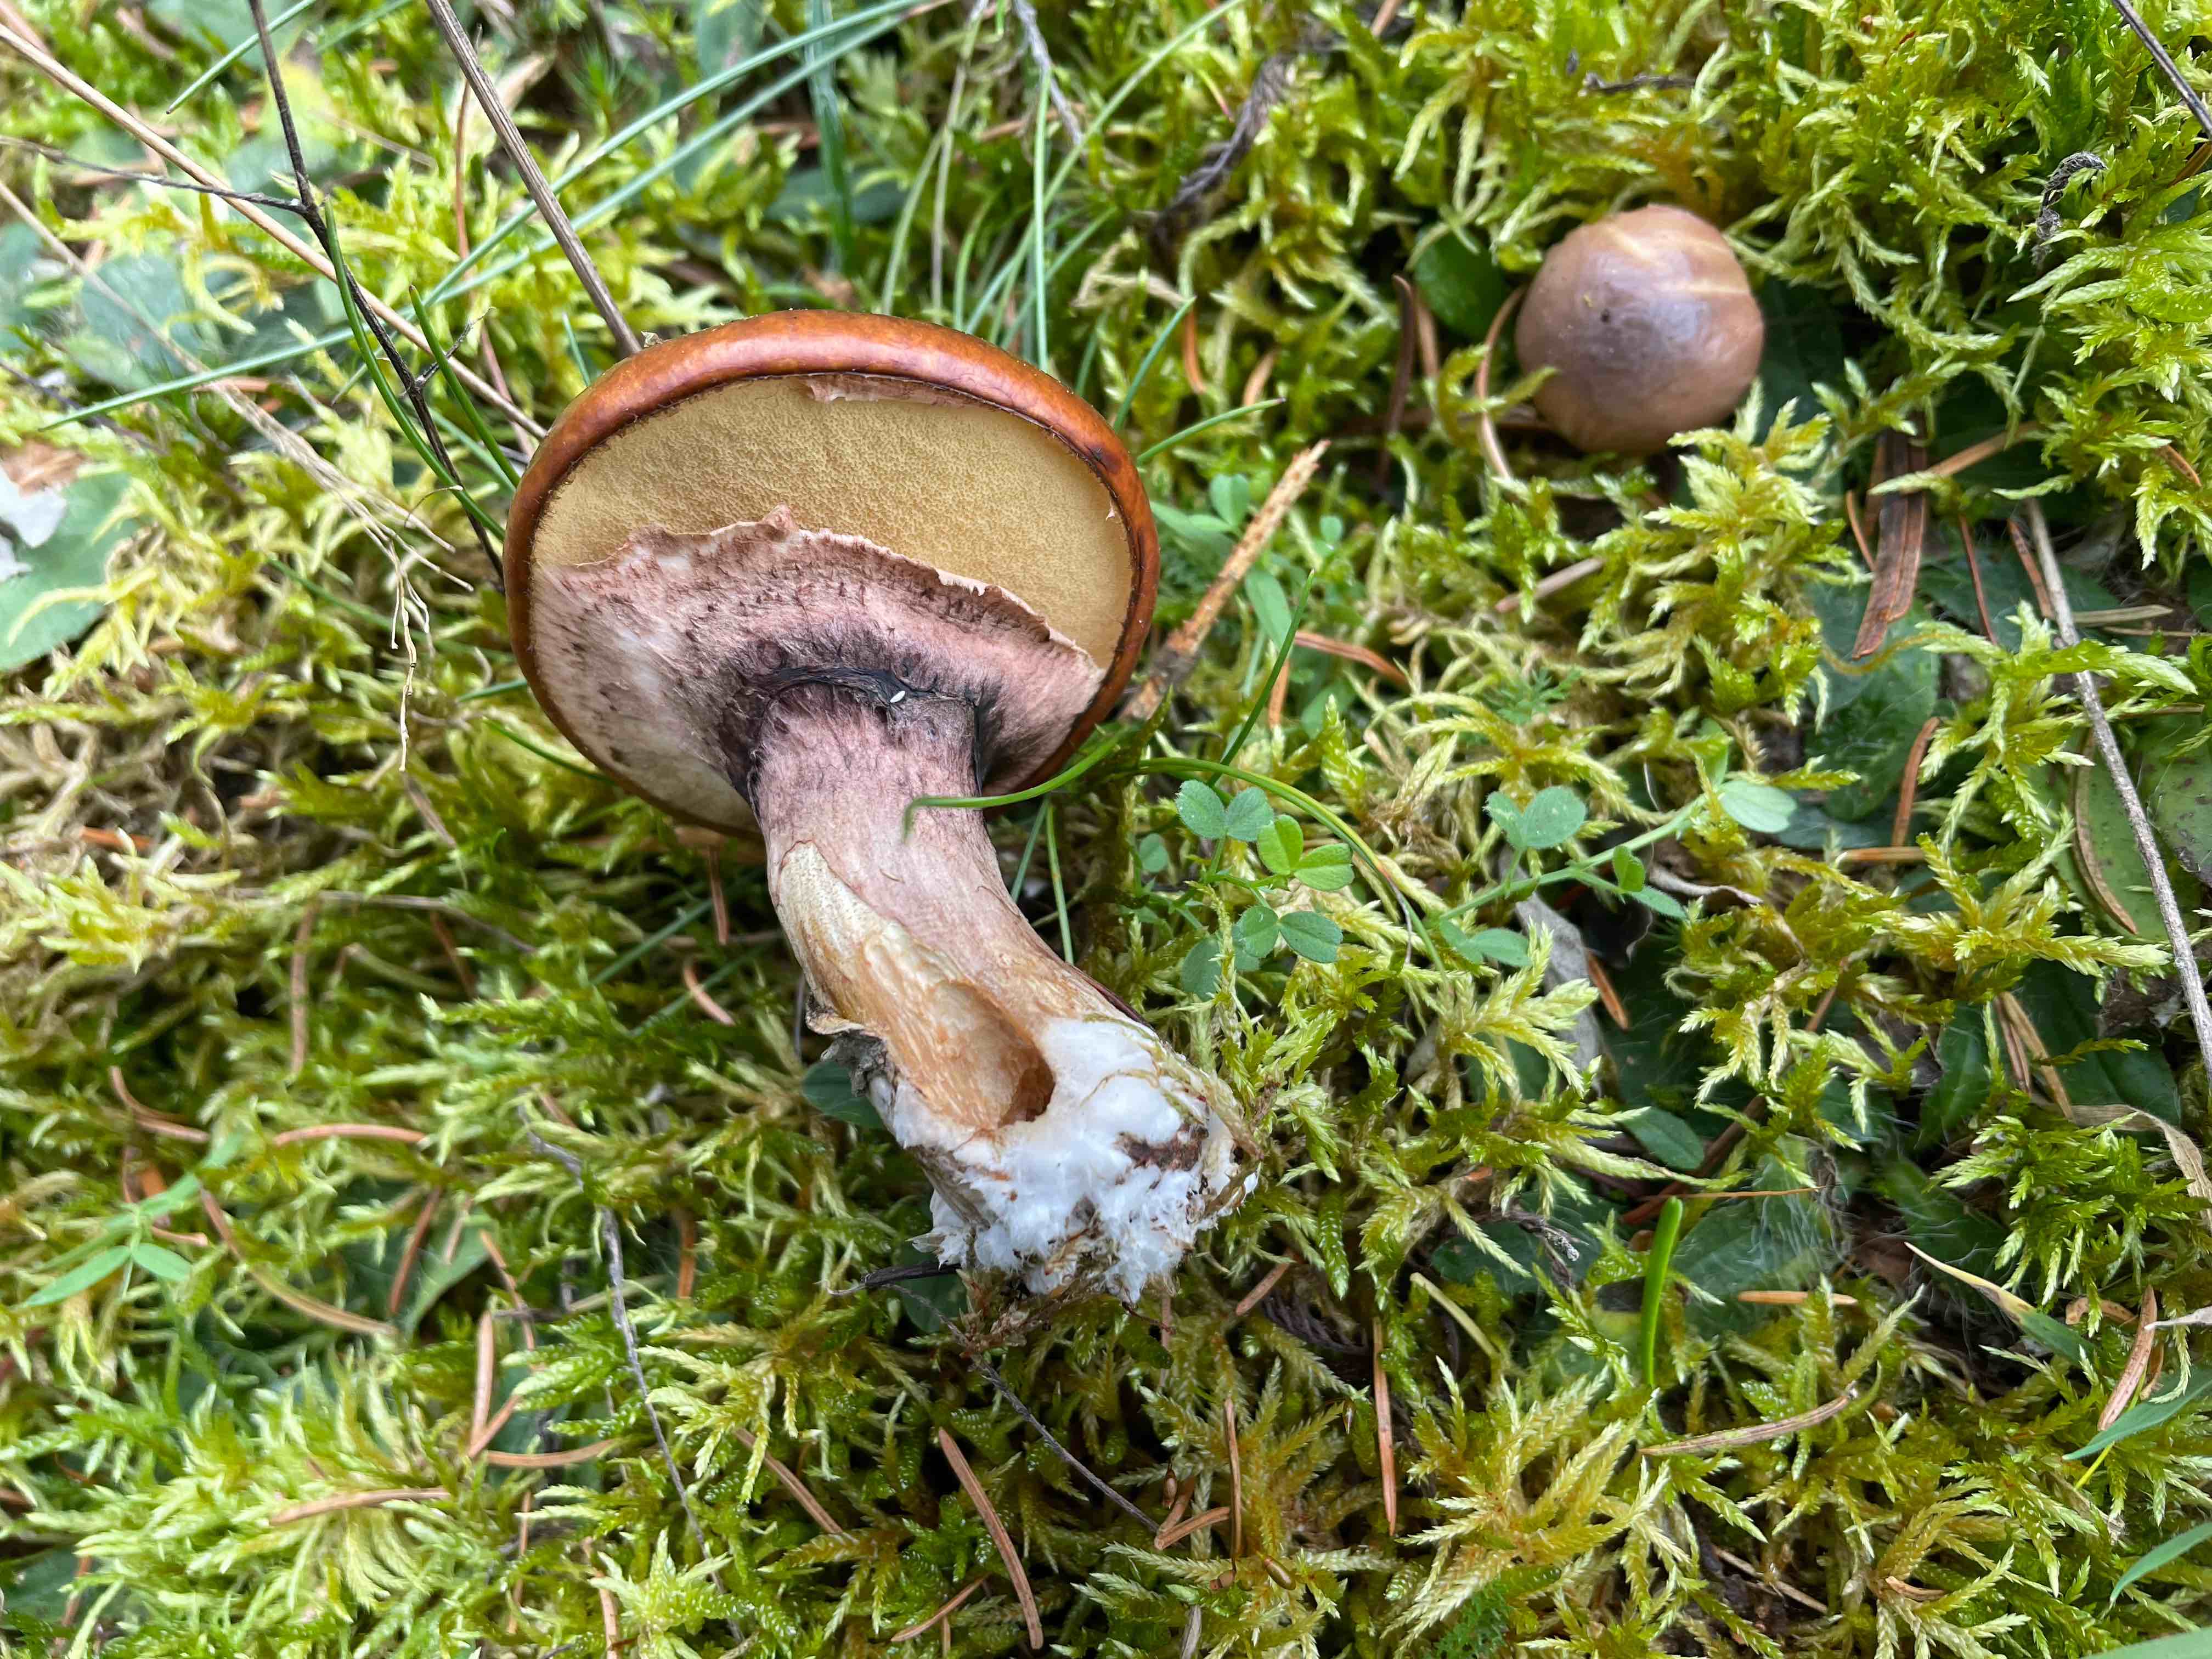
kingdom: Fungi
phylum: Basidiomycota
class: Agaricomycetes
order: Boletales
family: Suillaceae
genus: Suillus
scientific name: Suillus luteus
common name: brungul slimrørhat
